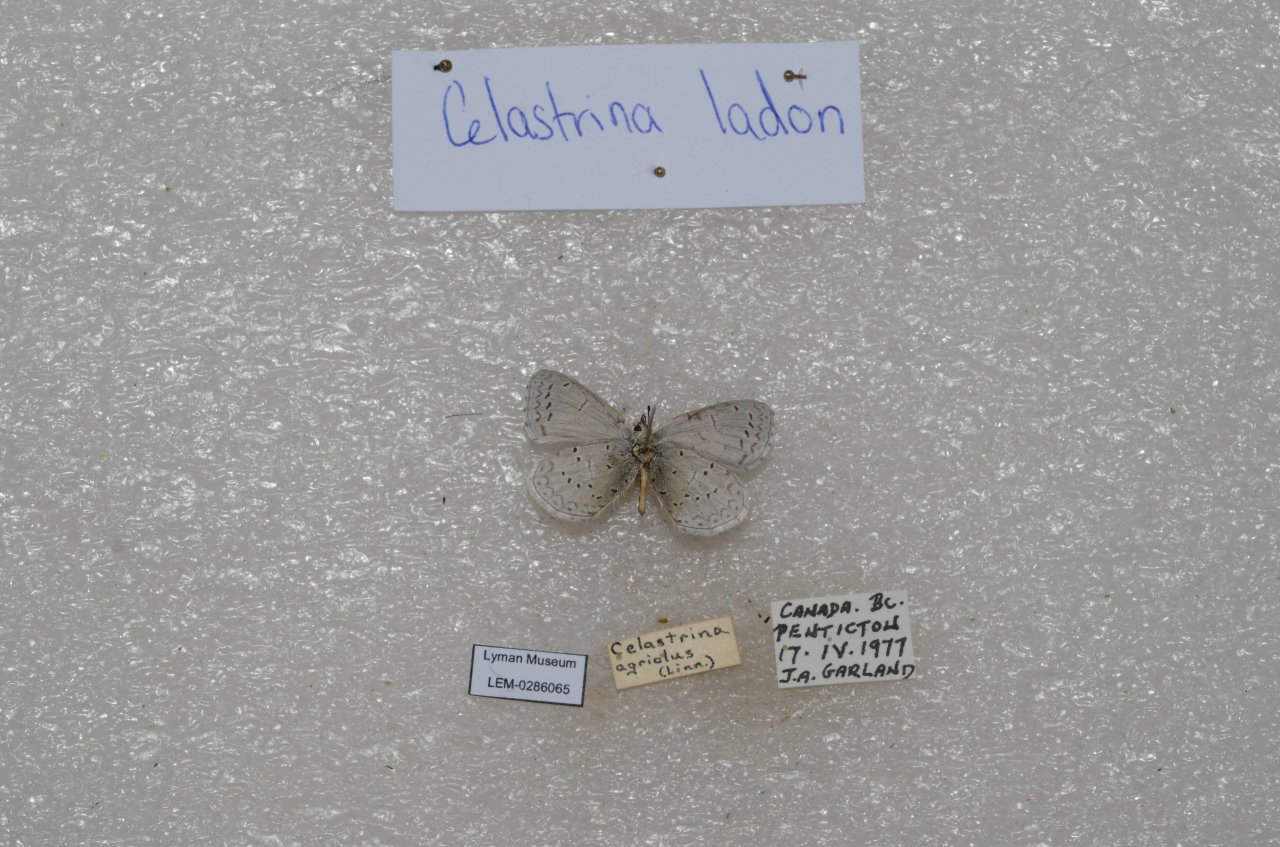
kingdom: Animalia
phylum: Arthropoda
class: Insecta
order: Lepidoptera
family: Lycaenidae
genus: Celastrina
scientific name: Celastrina
